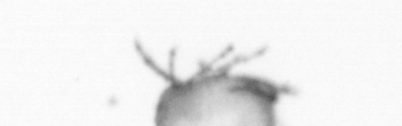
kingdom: Animalia
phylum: Arthropoda
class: Copepoda
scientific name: Copepoda
